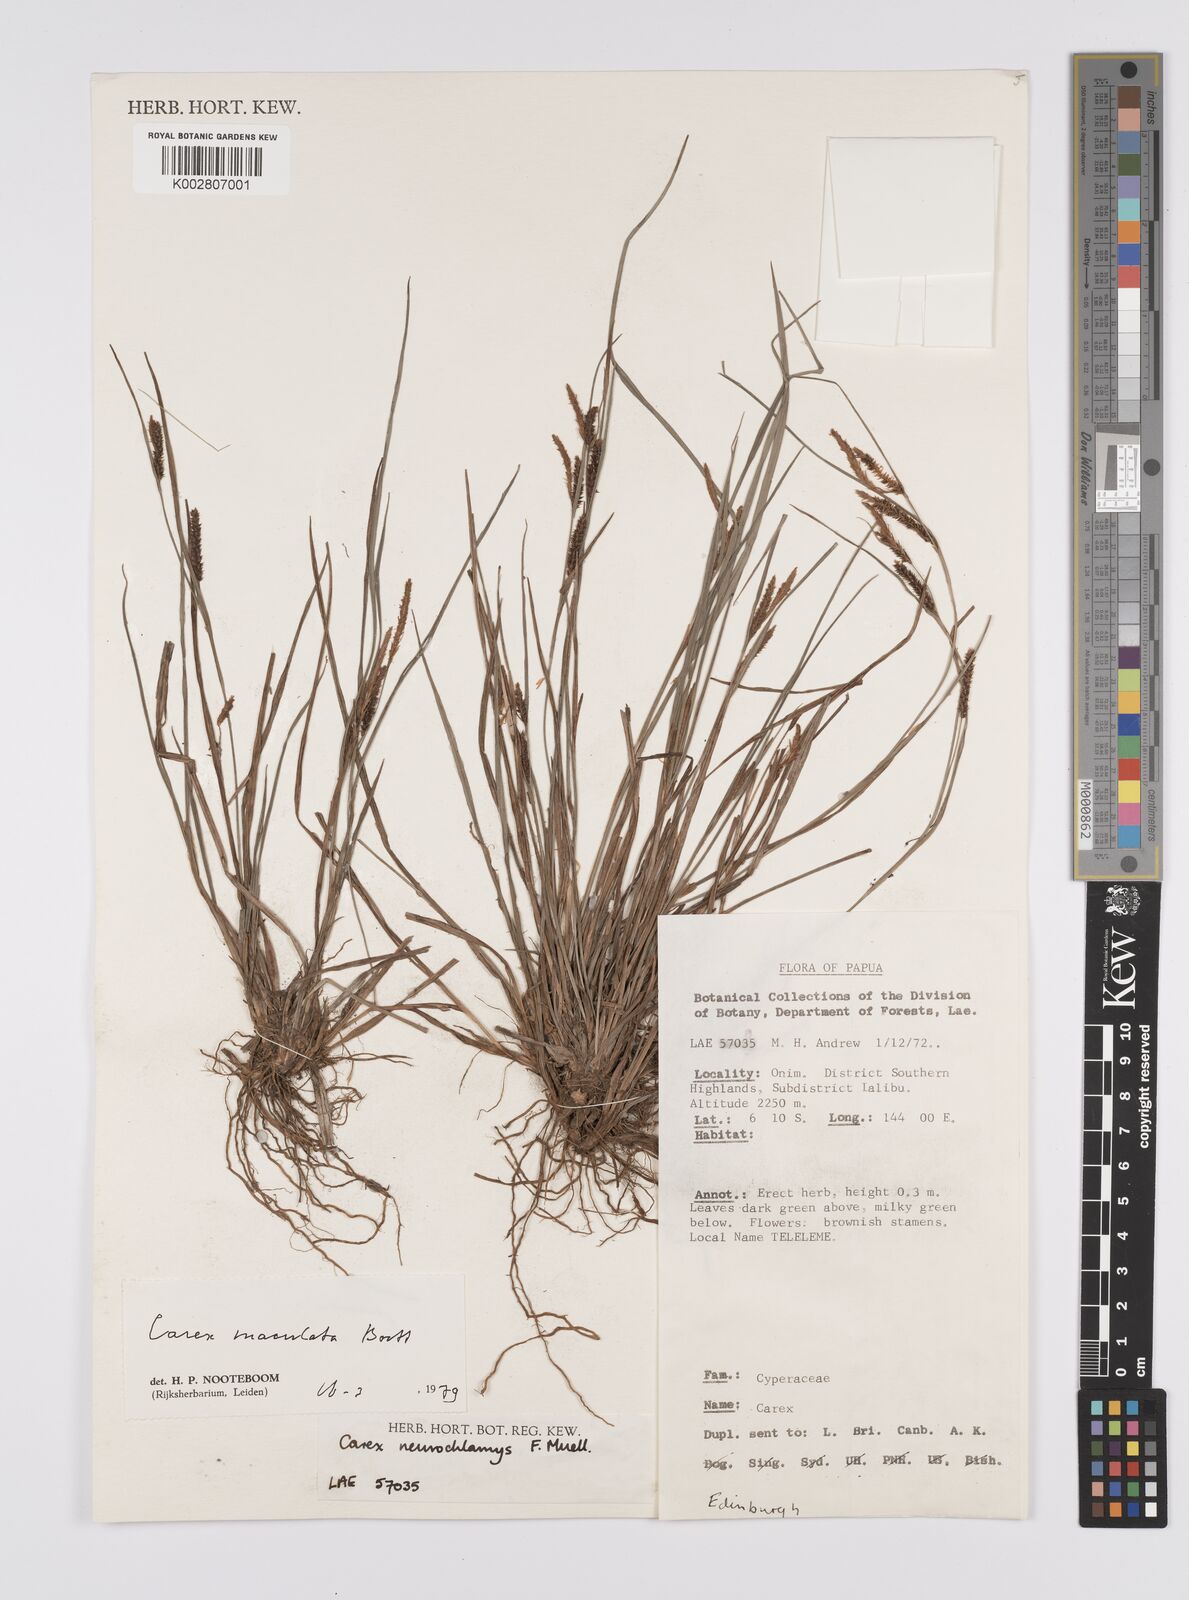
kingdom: Plantae
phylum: Tracheophyta
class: Liliopsida
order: Poales
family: Cyperaceae
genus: Carex
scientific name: Carex maculata
